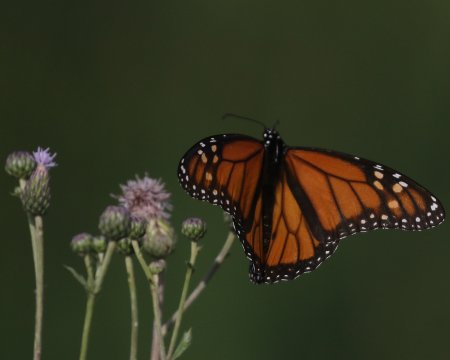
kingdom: Animalia
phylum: Arthropoda
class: Insecta
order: Lepidoptera
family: Nymphalidae
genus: Danaus
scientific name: Danaus plexippus
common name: Monarch
